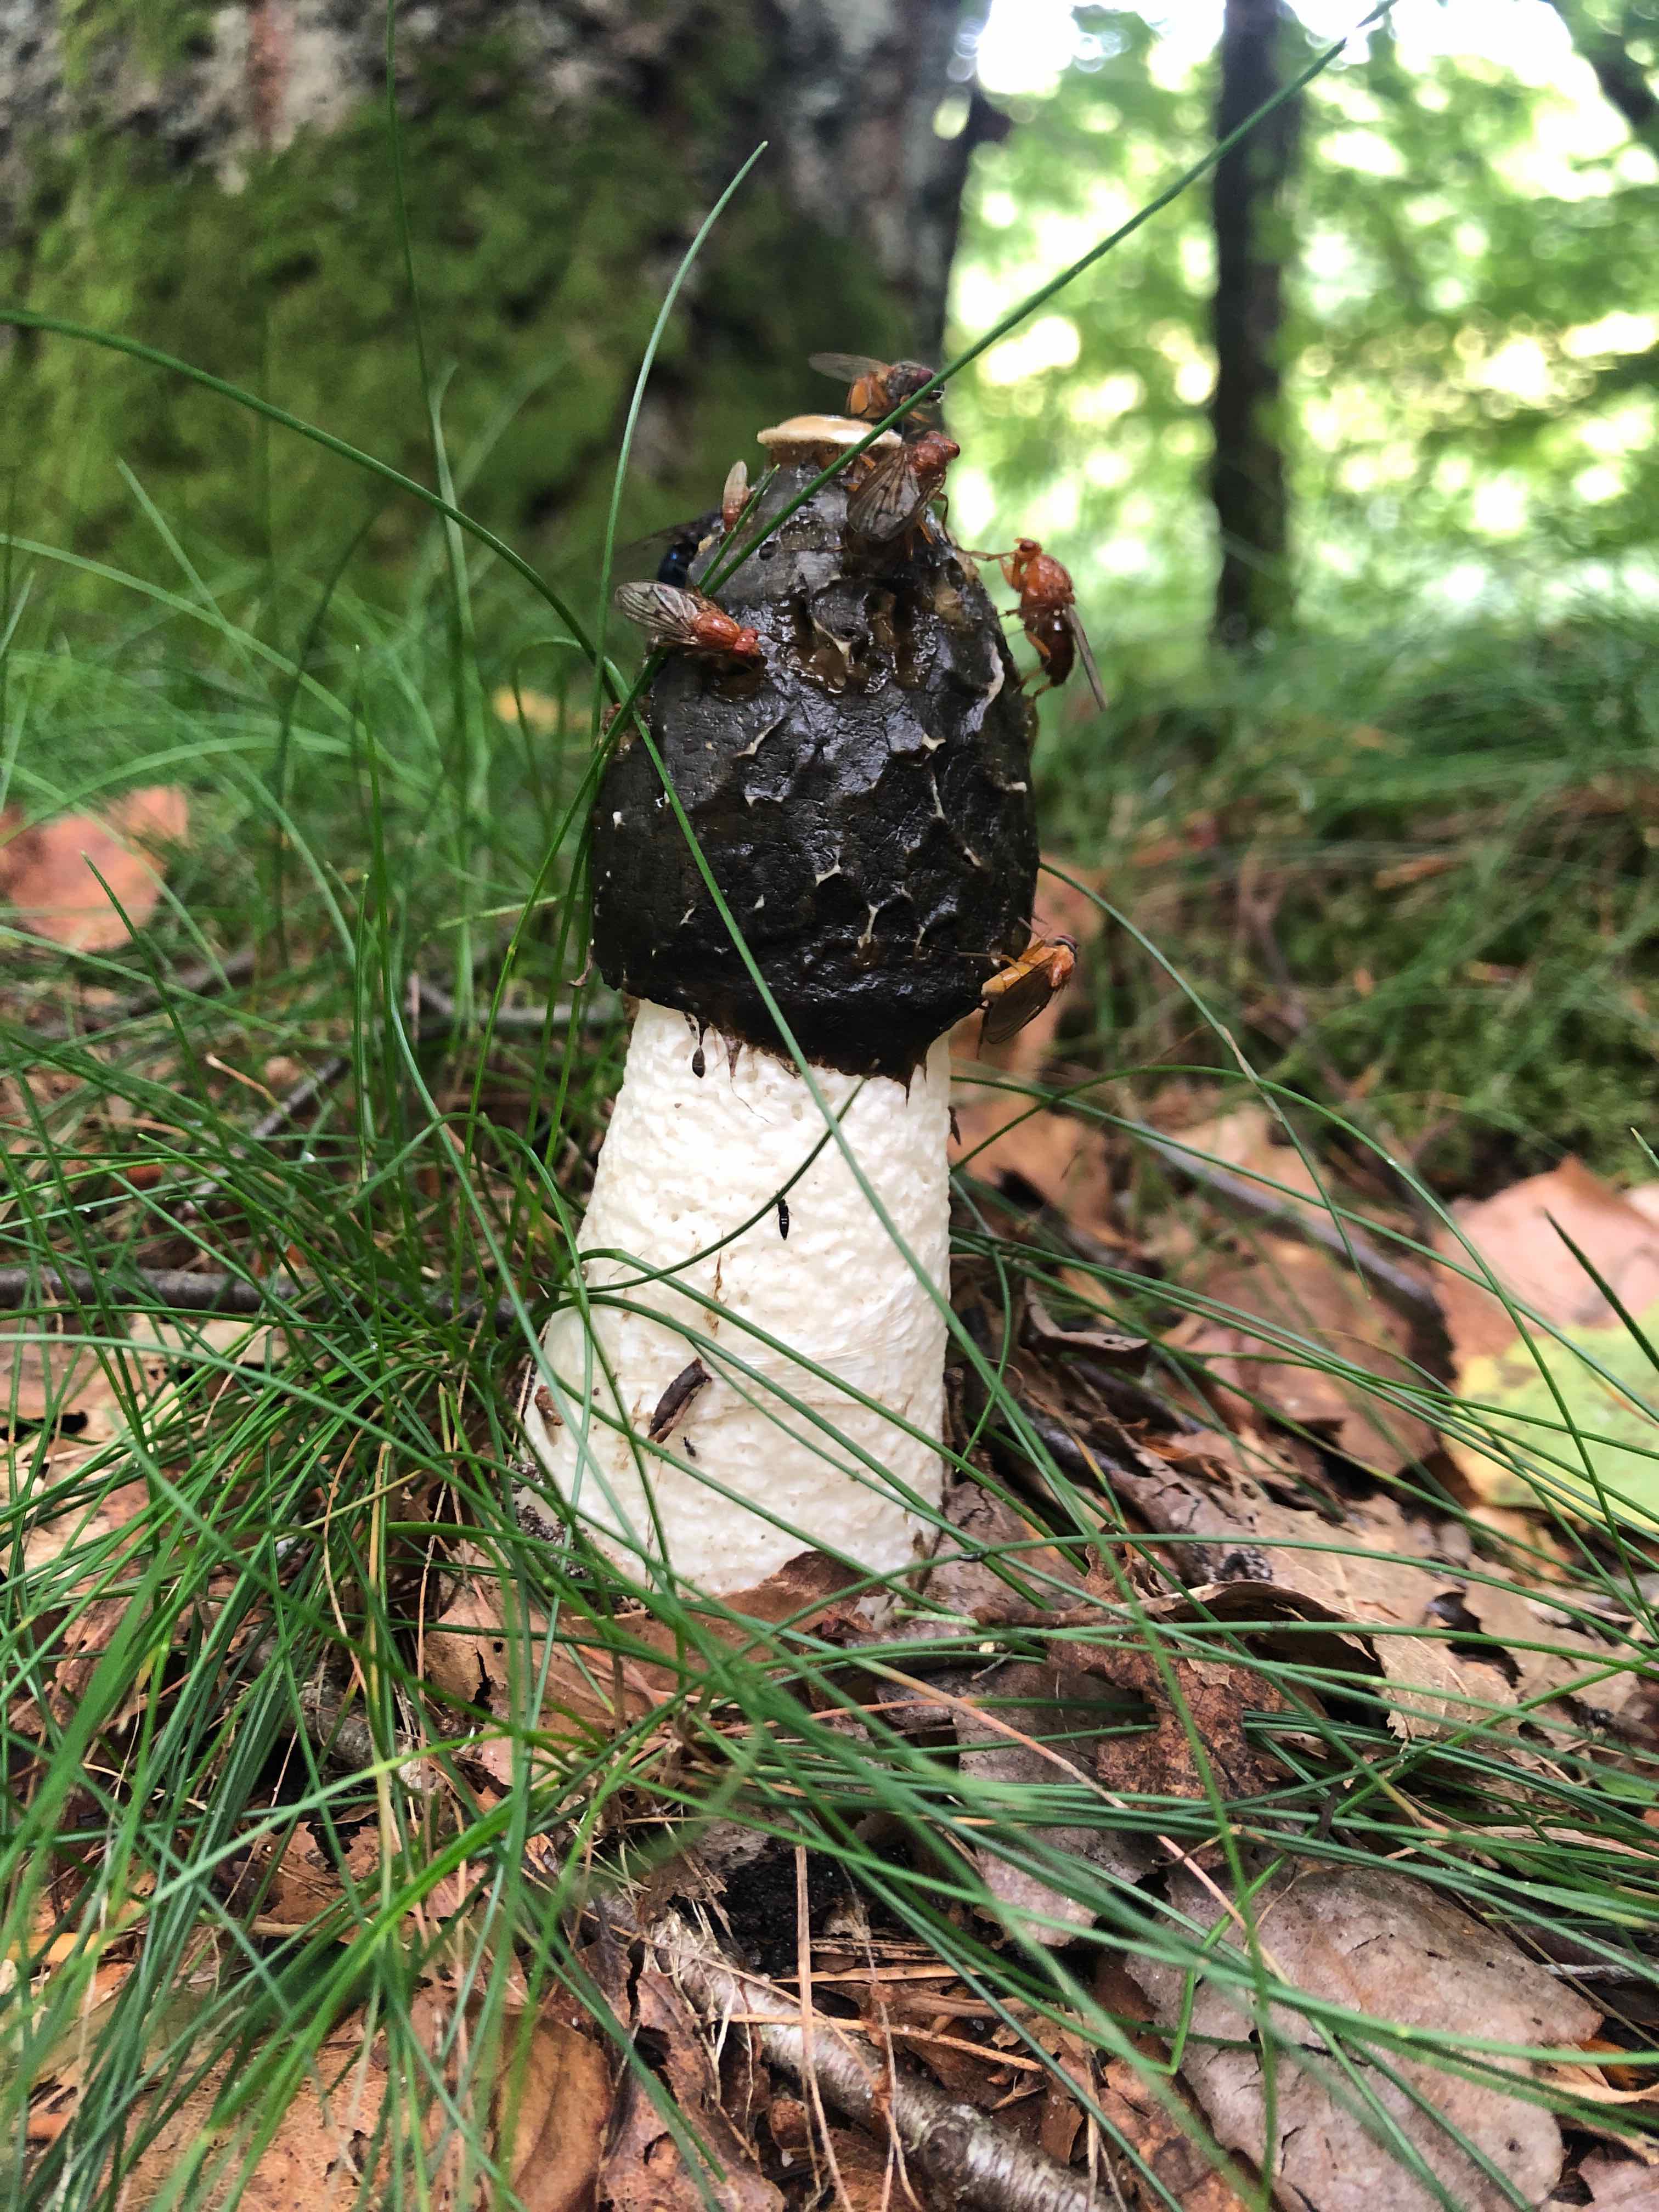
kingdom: Fungi
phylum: Basidiomycota
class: Agaricomycetes
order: Phallales
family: Phallaceae
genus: Phallus
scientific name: Phallus impudicus
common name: almindelig stinksvamp
